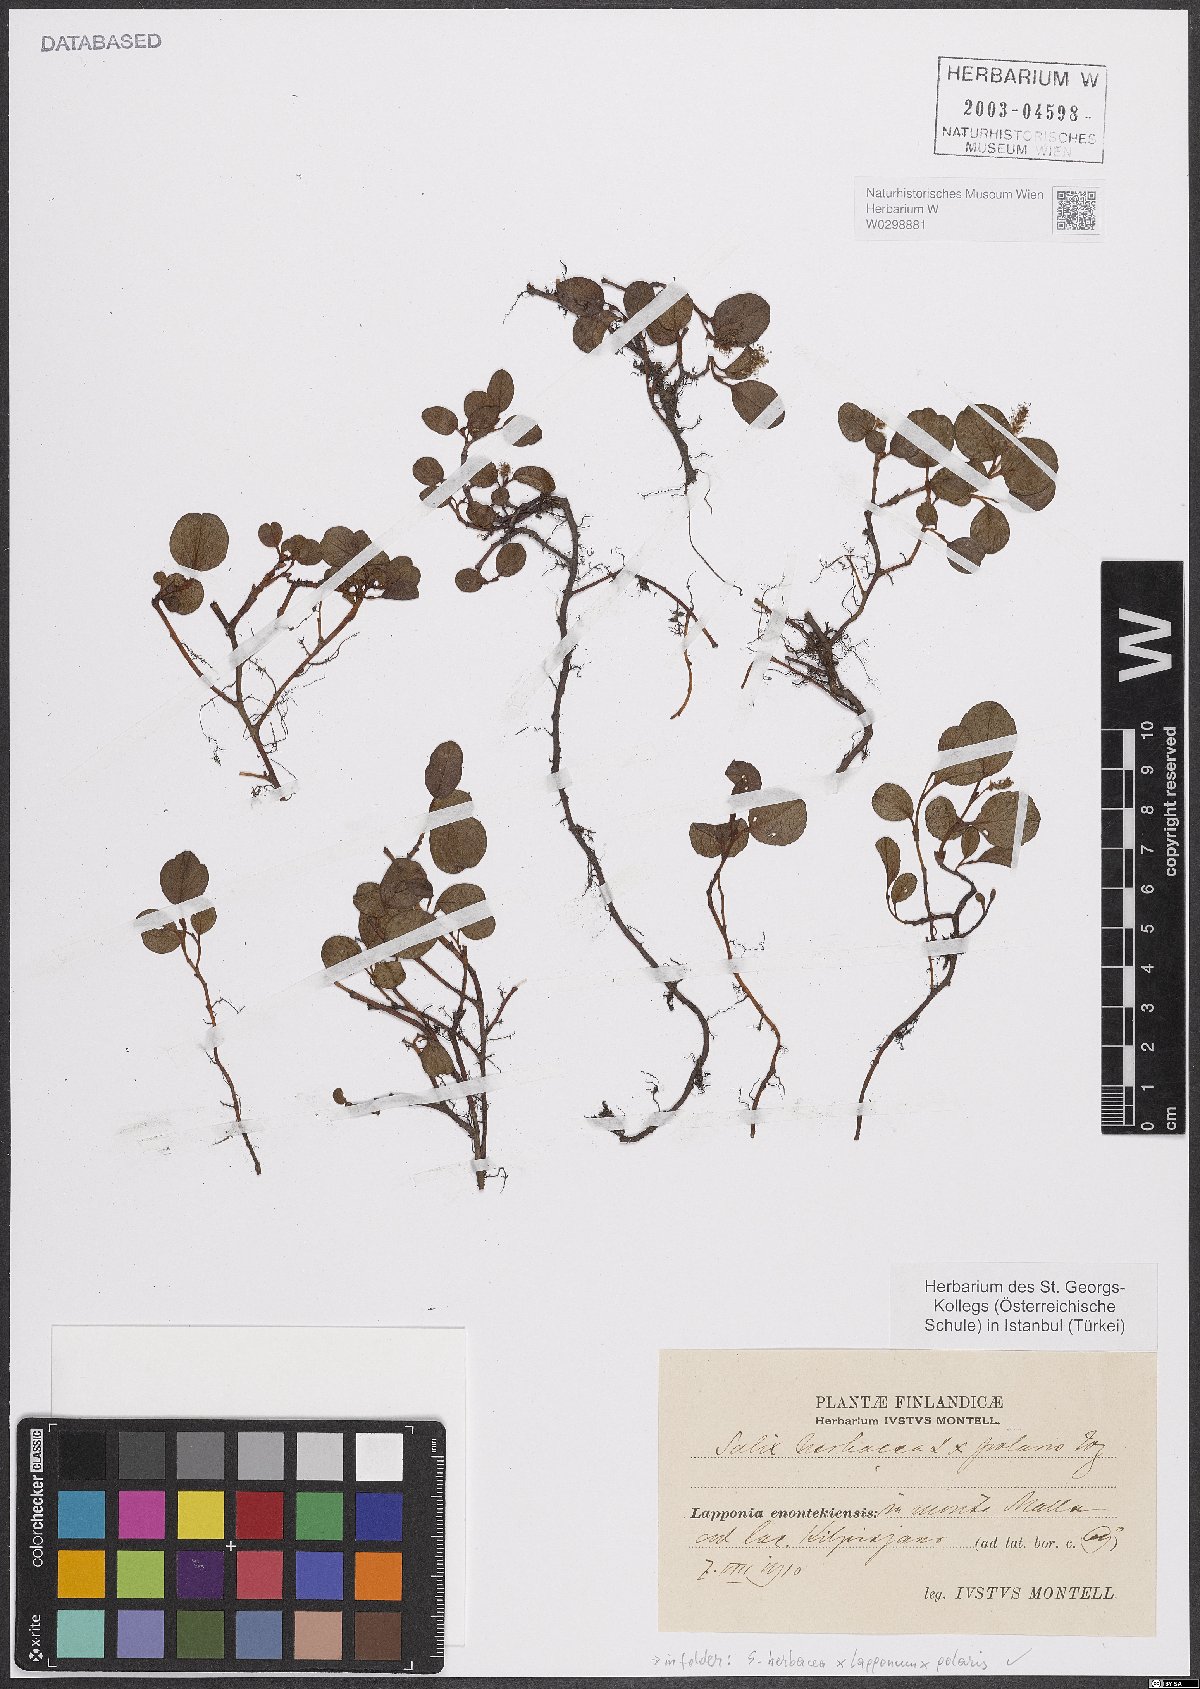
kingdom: Plantae
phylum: Tracheophyta
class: Magnoliopsida
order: Malpighiales
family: Salicaceae
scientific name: Salicaceae
